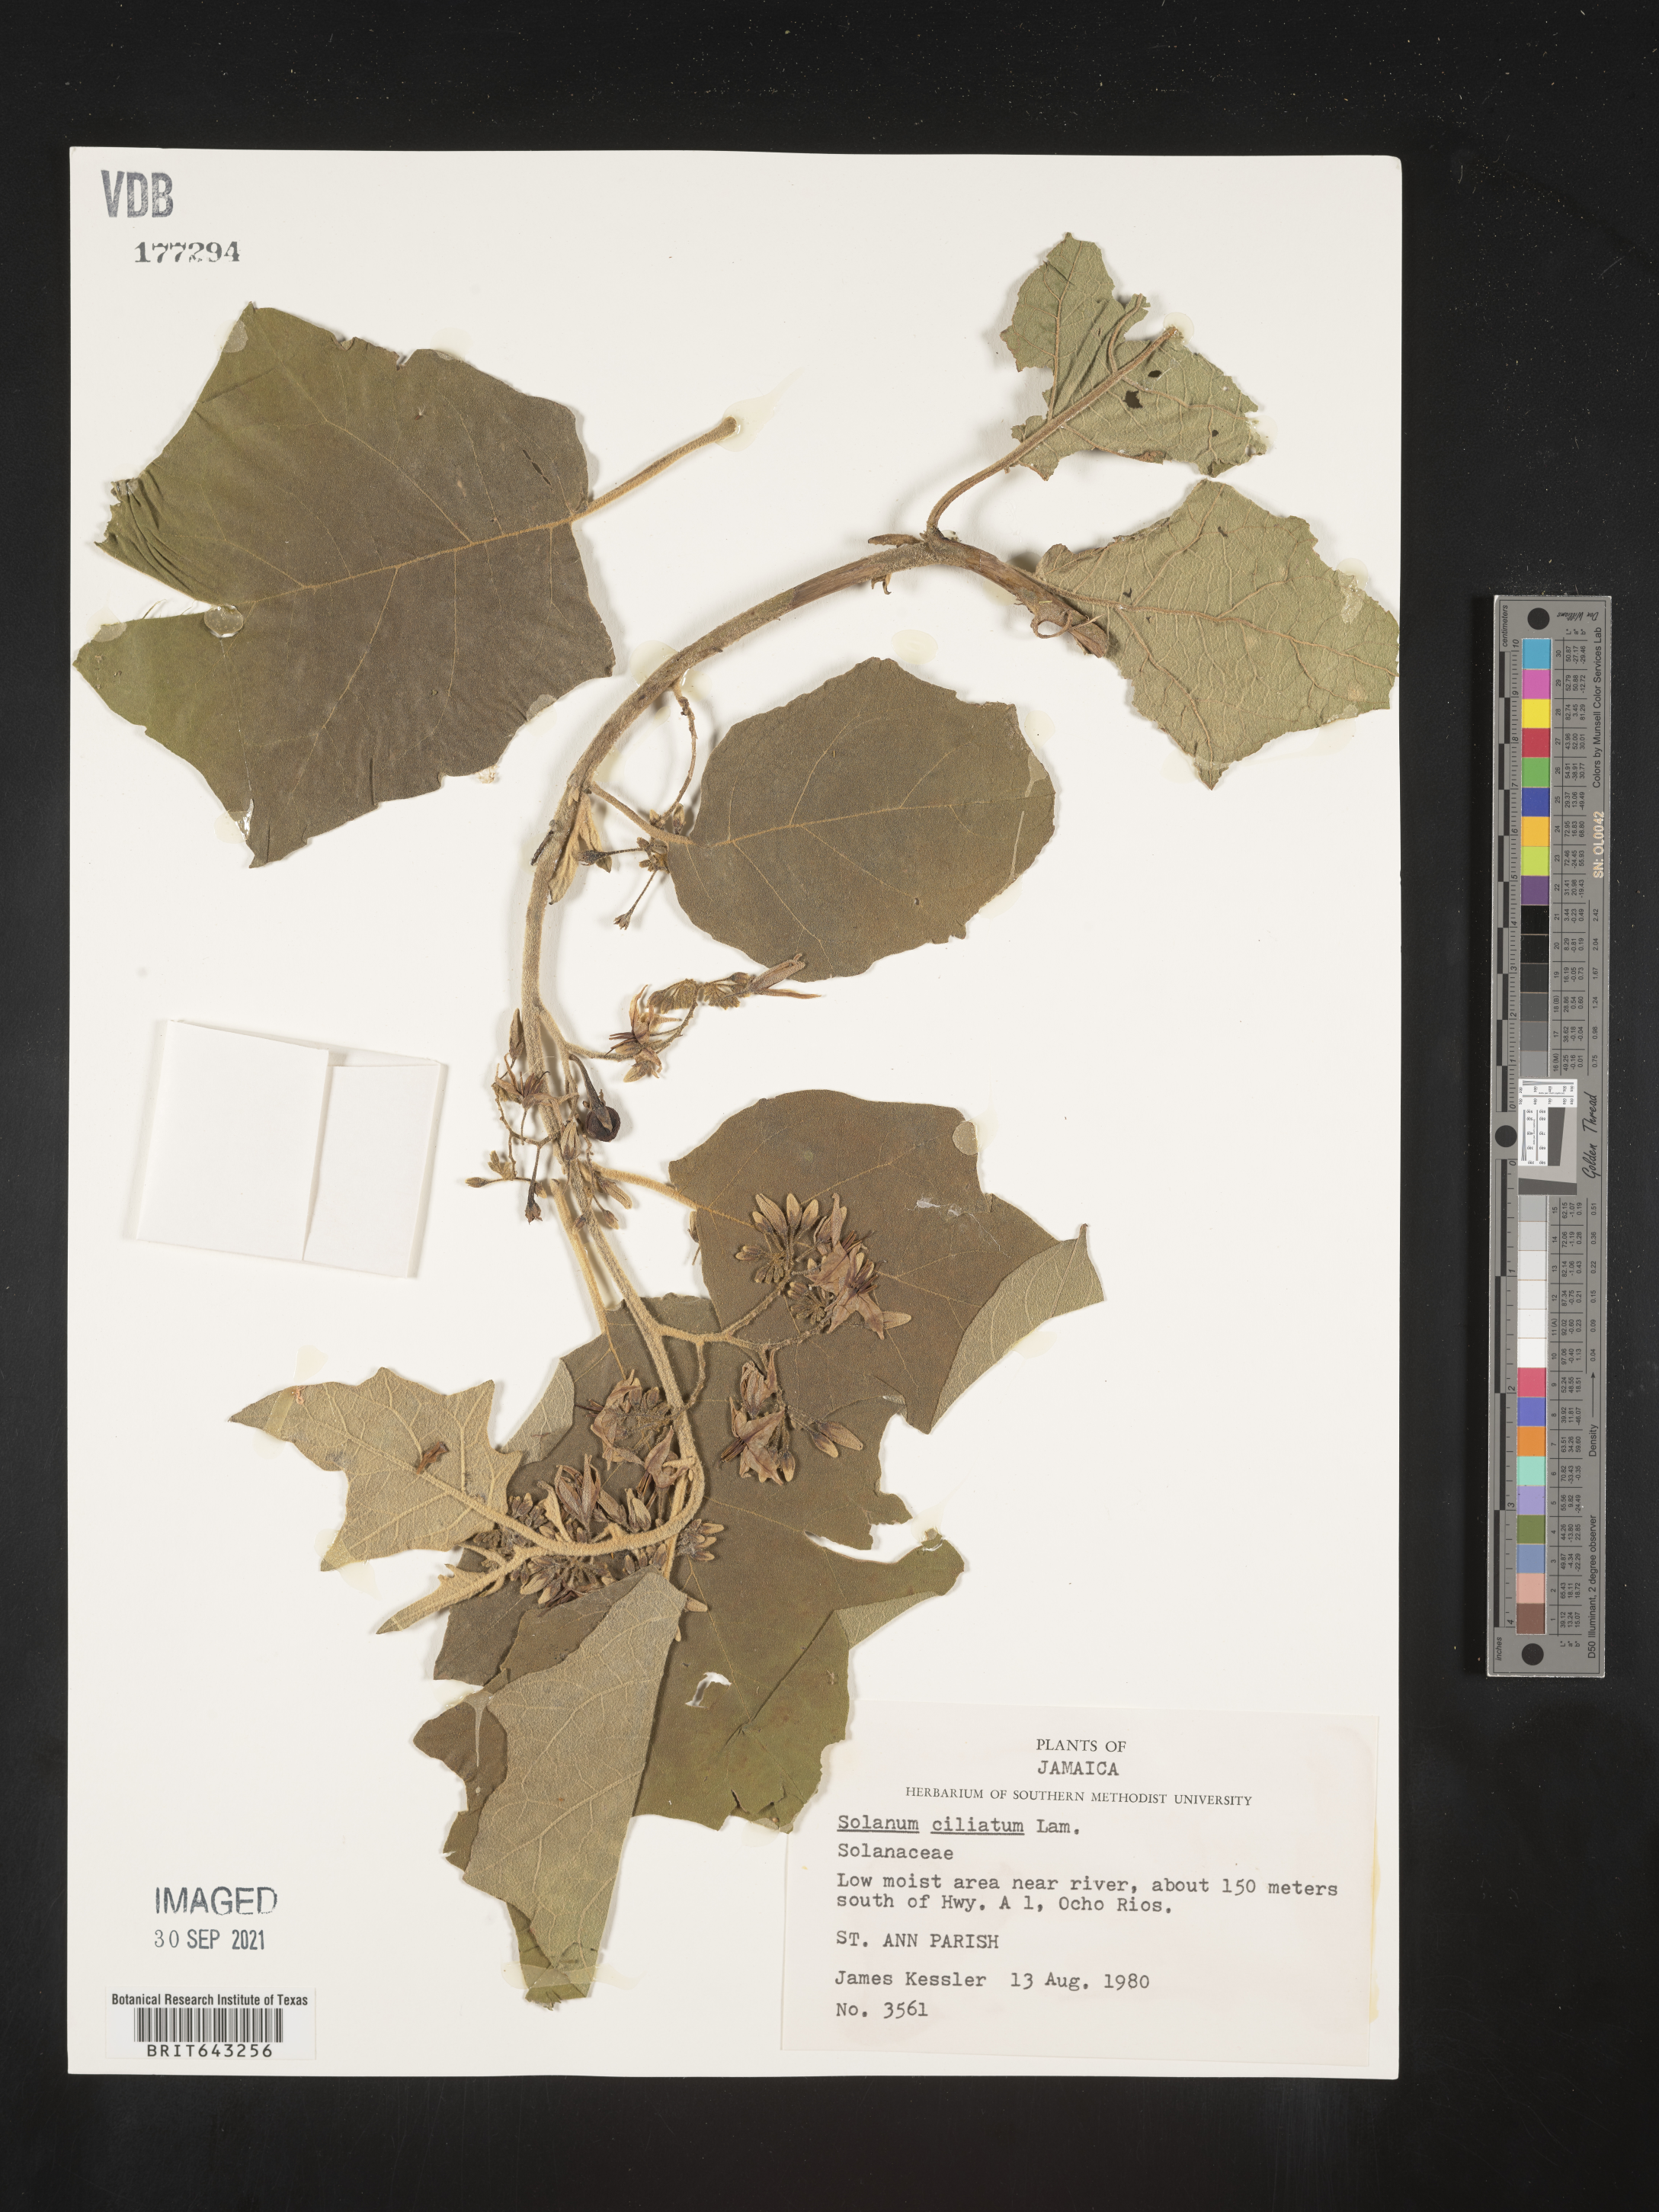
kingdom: Plantae
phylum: Tracheophyta
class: Magnoliopsida
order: Solanales
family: Solanaceae
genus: Solanum
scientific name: Solanum
